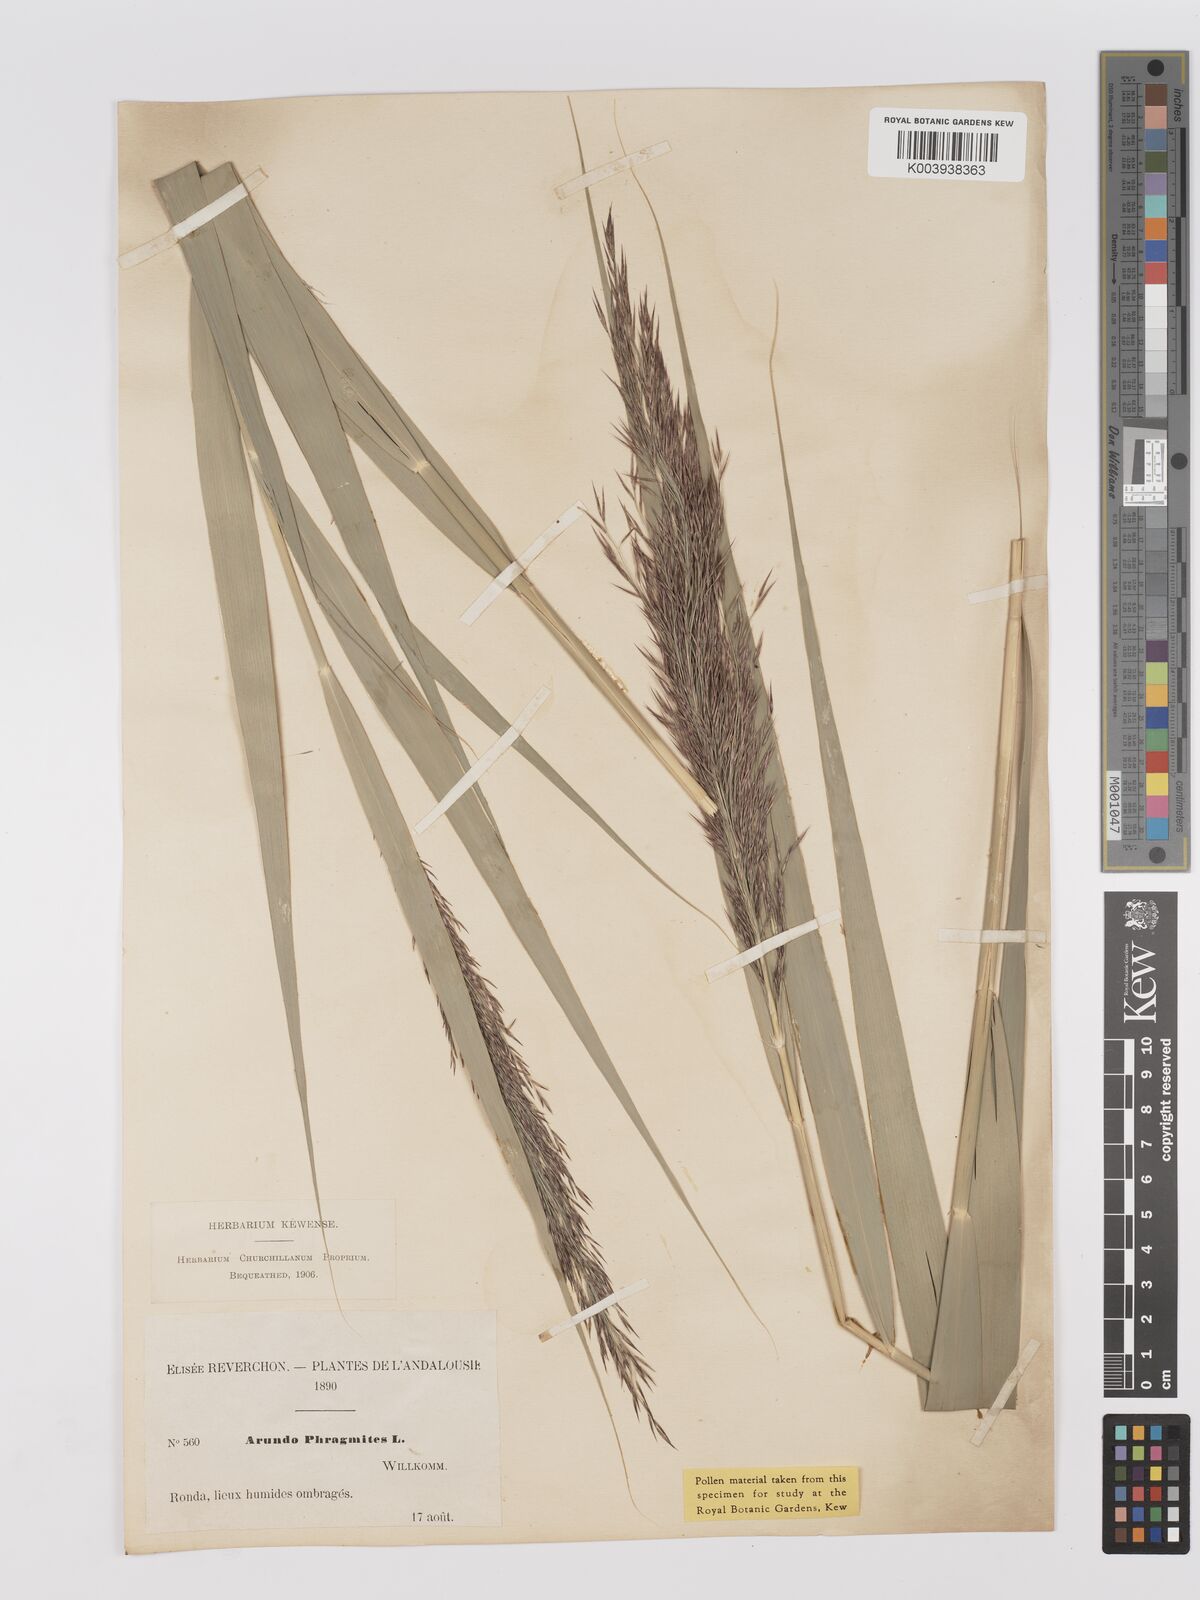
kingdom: Plantae
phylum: Tracheophyta
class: Liliopsida
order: Poales
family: Poaceae
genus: Phragmites
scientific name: Phragmites australis
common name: Common reed
